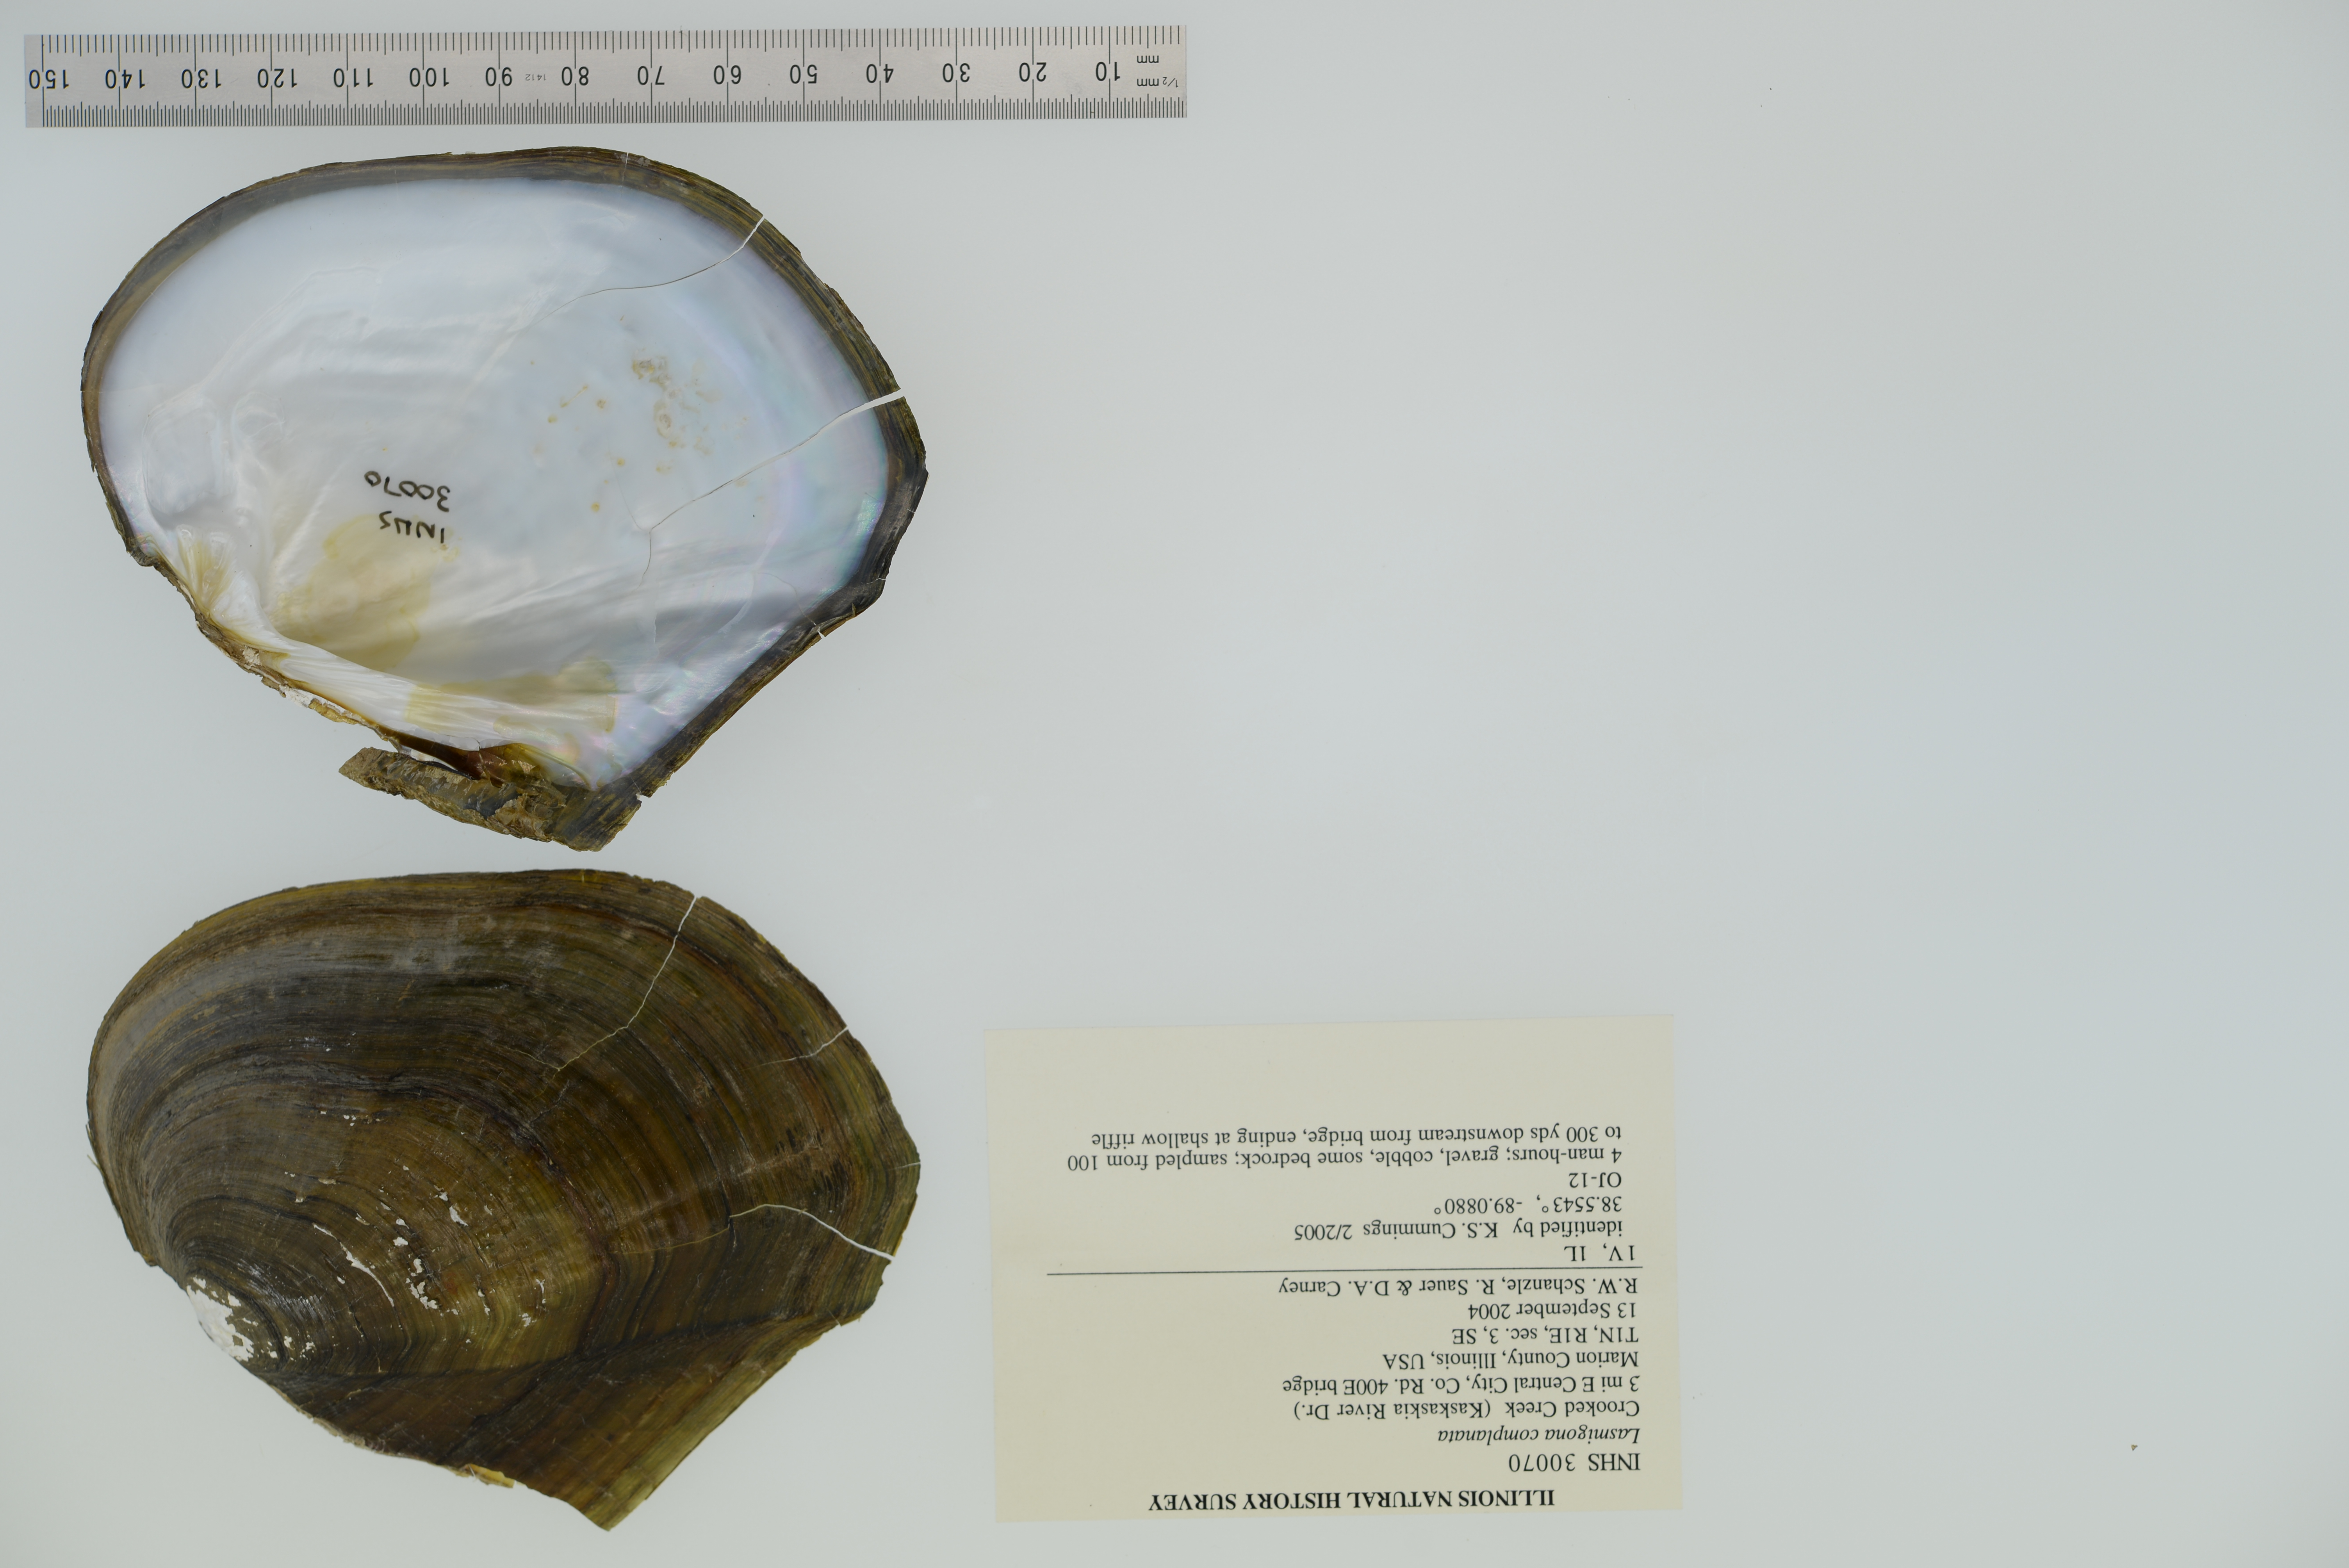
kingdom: Animalia
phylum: Mollusca
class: Bivalvia
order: Unionida
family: Unionidae
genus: Lasmigona
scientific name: Lasmigona complanata
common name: White heelsplitter
